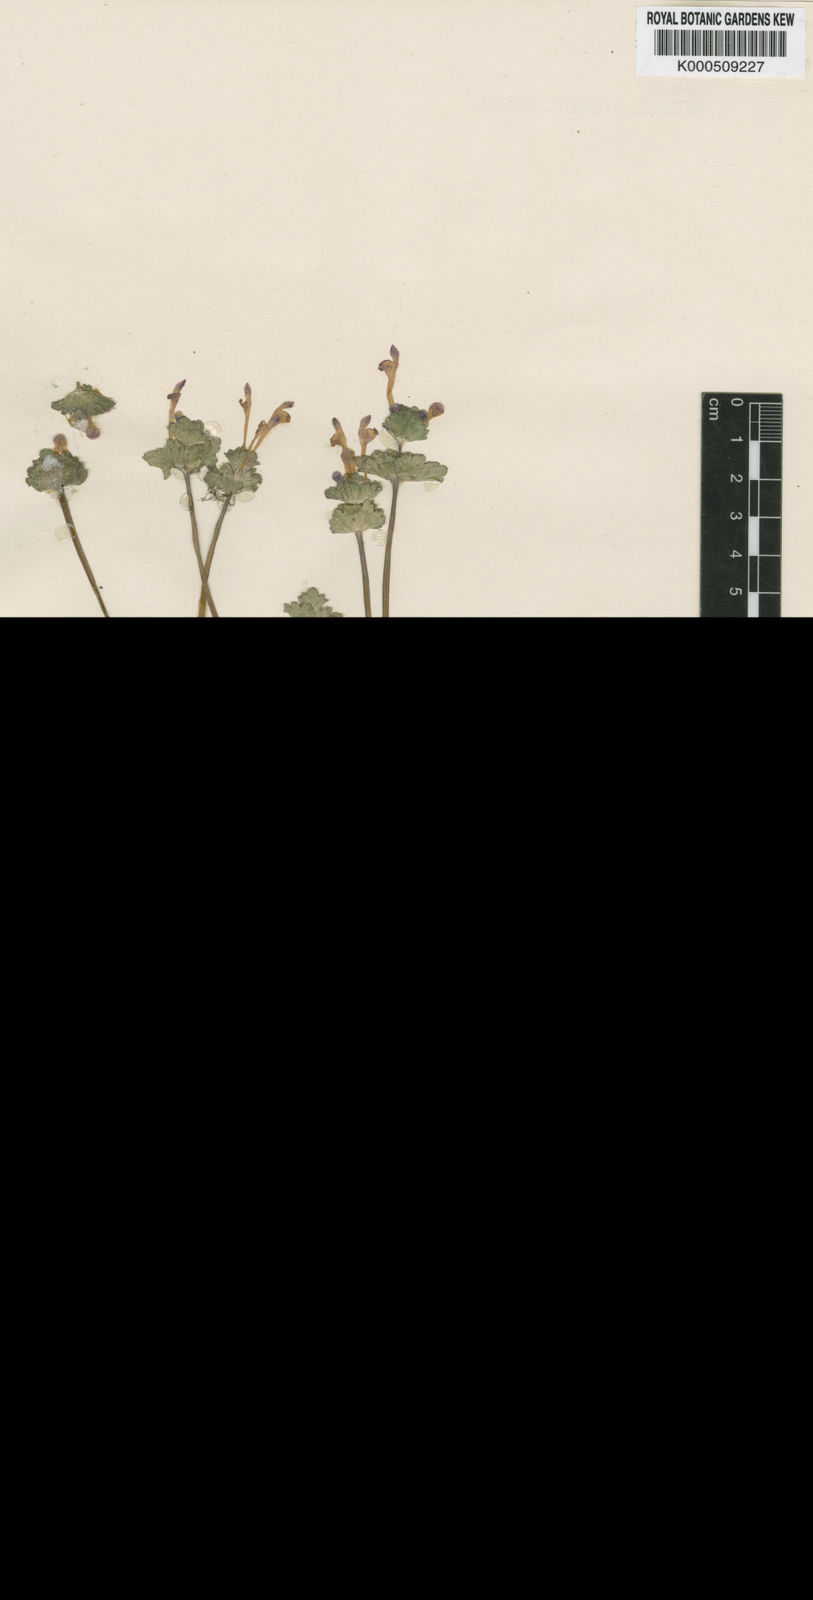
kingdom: Plantae
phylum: Tracheophyta
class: Magnoliopsida
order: Lamiales
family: Lamiaceae
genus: Lamium
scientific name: Lamium amplexicaule
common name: Henbit dead-nettle
